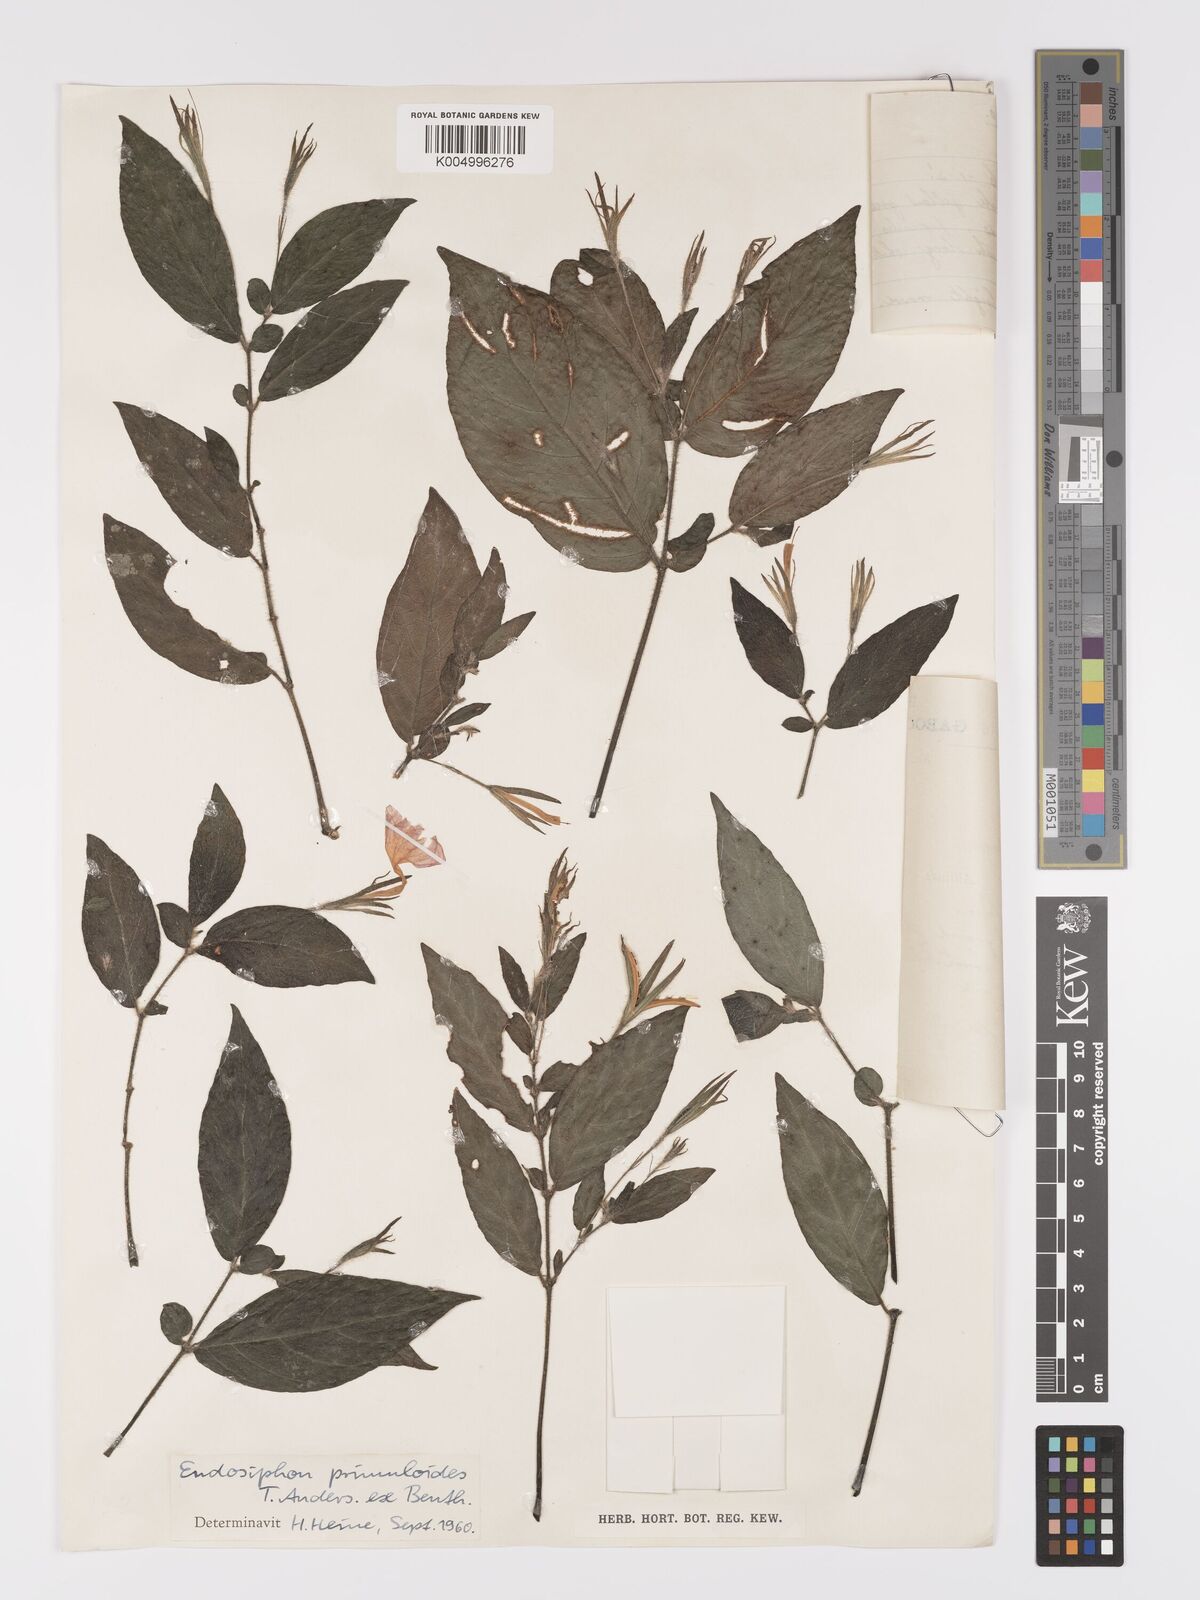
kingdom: Plantae
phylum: Tracheophyta
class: Magnoliopsida
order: Lamiales
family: Acanthaceae
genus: Ruellia
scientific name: Ruellia primuloides
